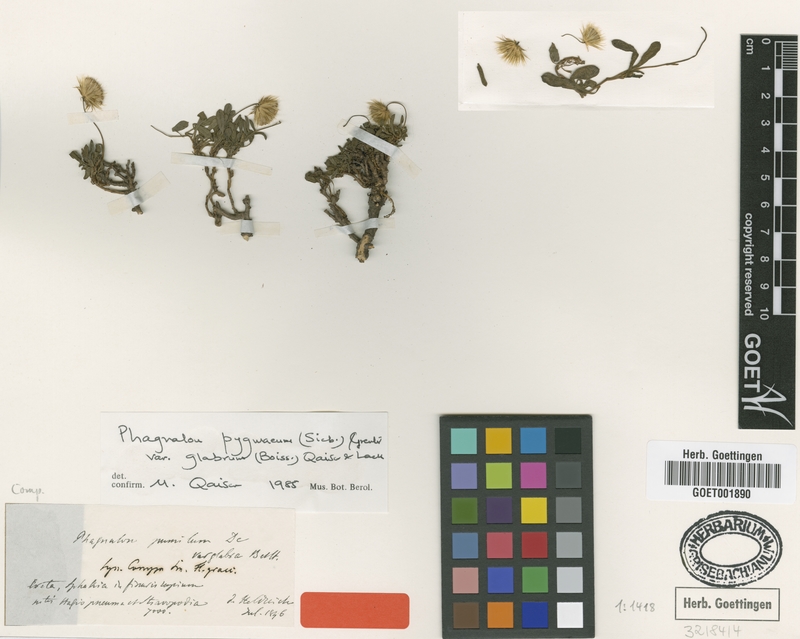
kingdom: Plantae
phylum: Tracheophyta
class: Magnoliopsida
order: Asterales
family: Asteraceae
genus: Phagnalon
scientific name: Phagnalon pygmaeum
